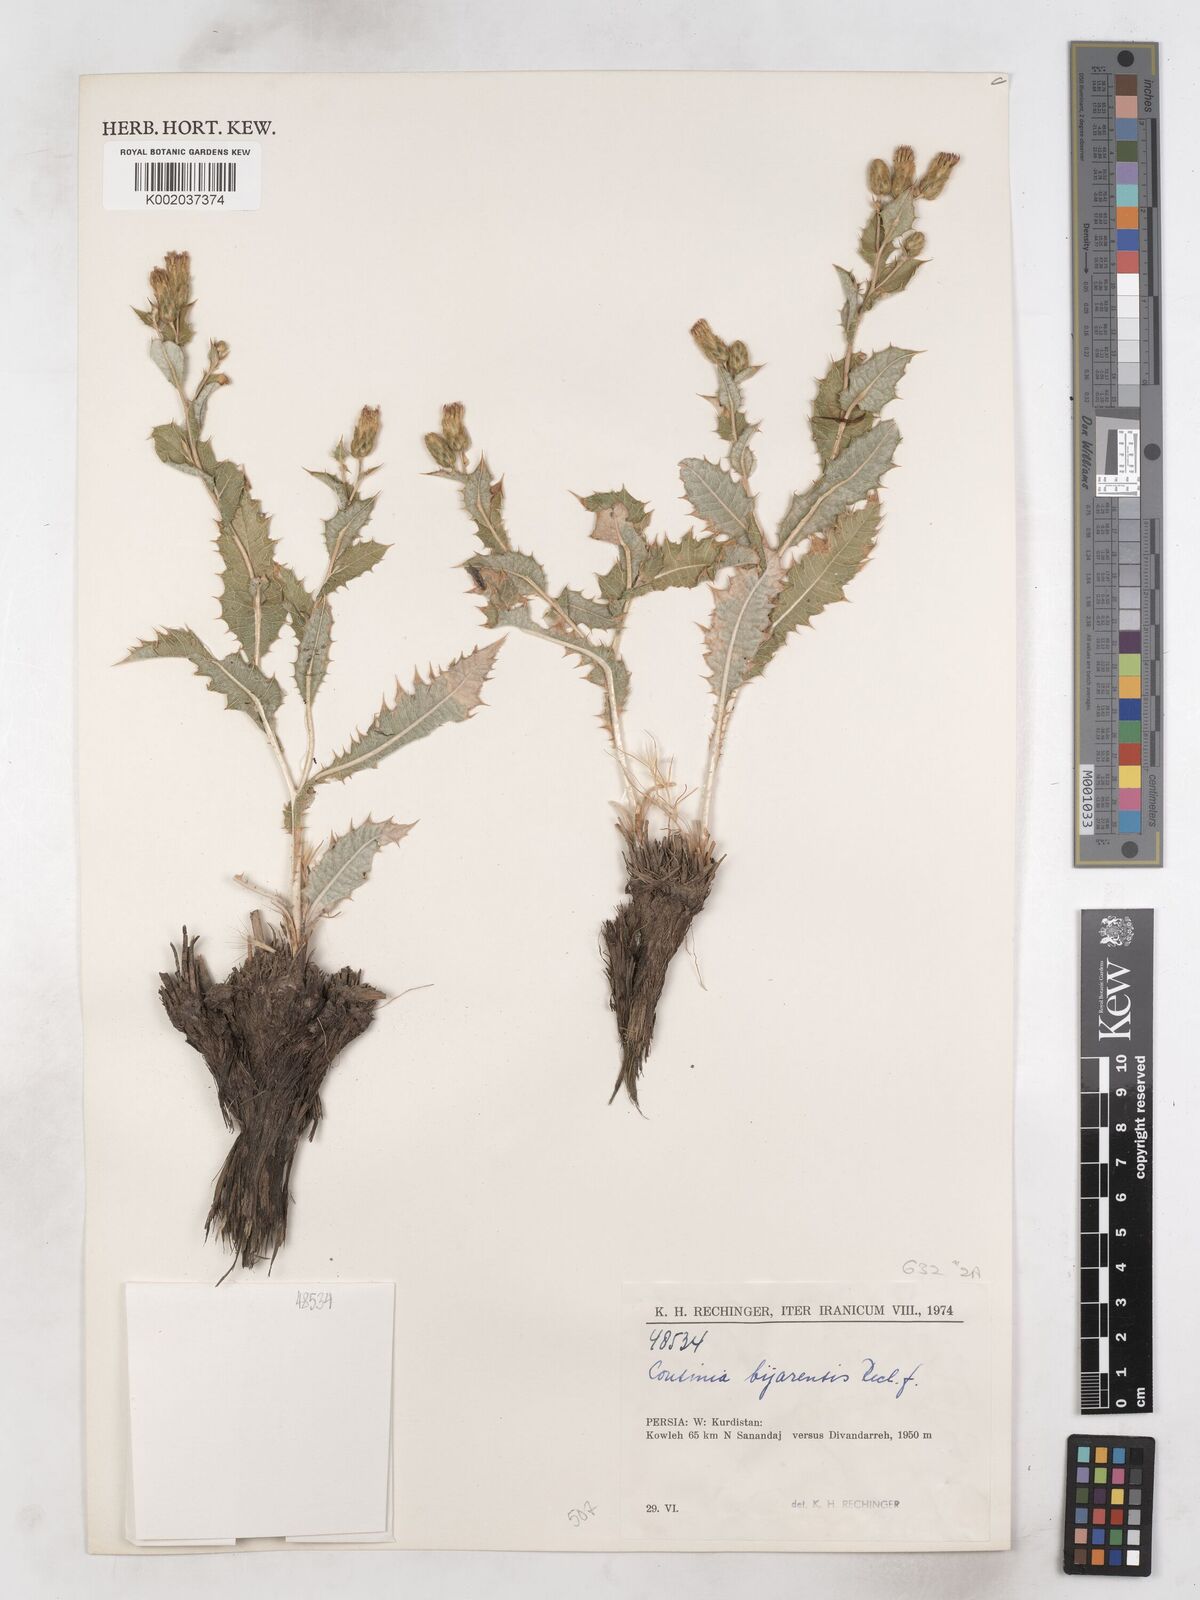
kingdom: Plantae
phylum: Tracheophyta
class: Magnoliopsida
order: Asterales
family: Asteraceae
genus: Cousinia
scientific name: Cousinia bijarensis
